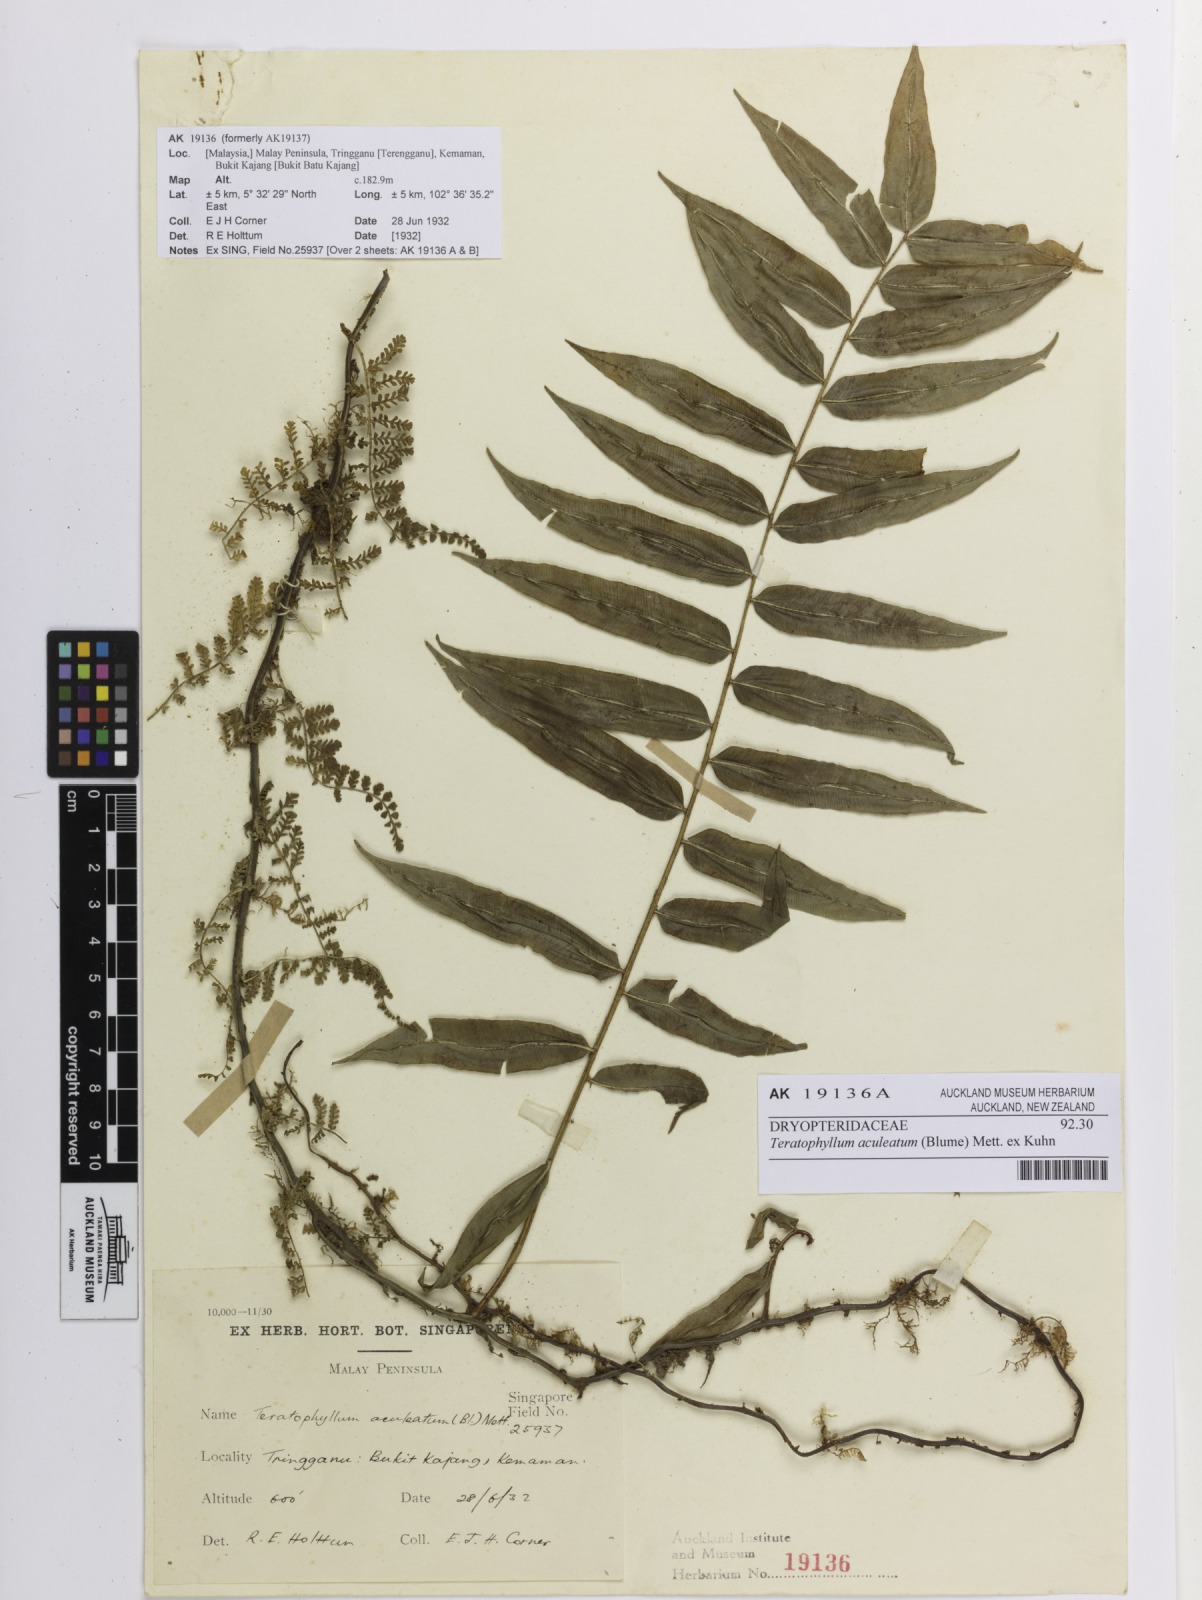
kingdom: Plantae
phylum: Tracheophyta
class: Polypodiopsida
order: Polypodiales
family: Dryopteridaceae
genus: Teratophyllum
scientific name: Teratophyllum aculeatum
